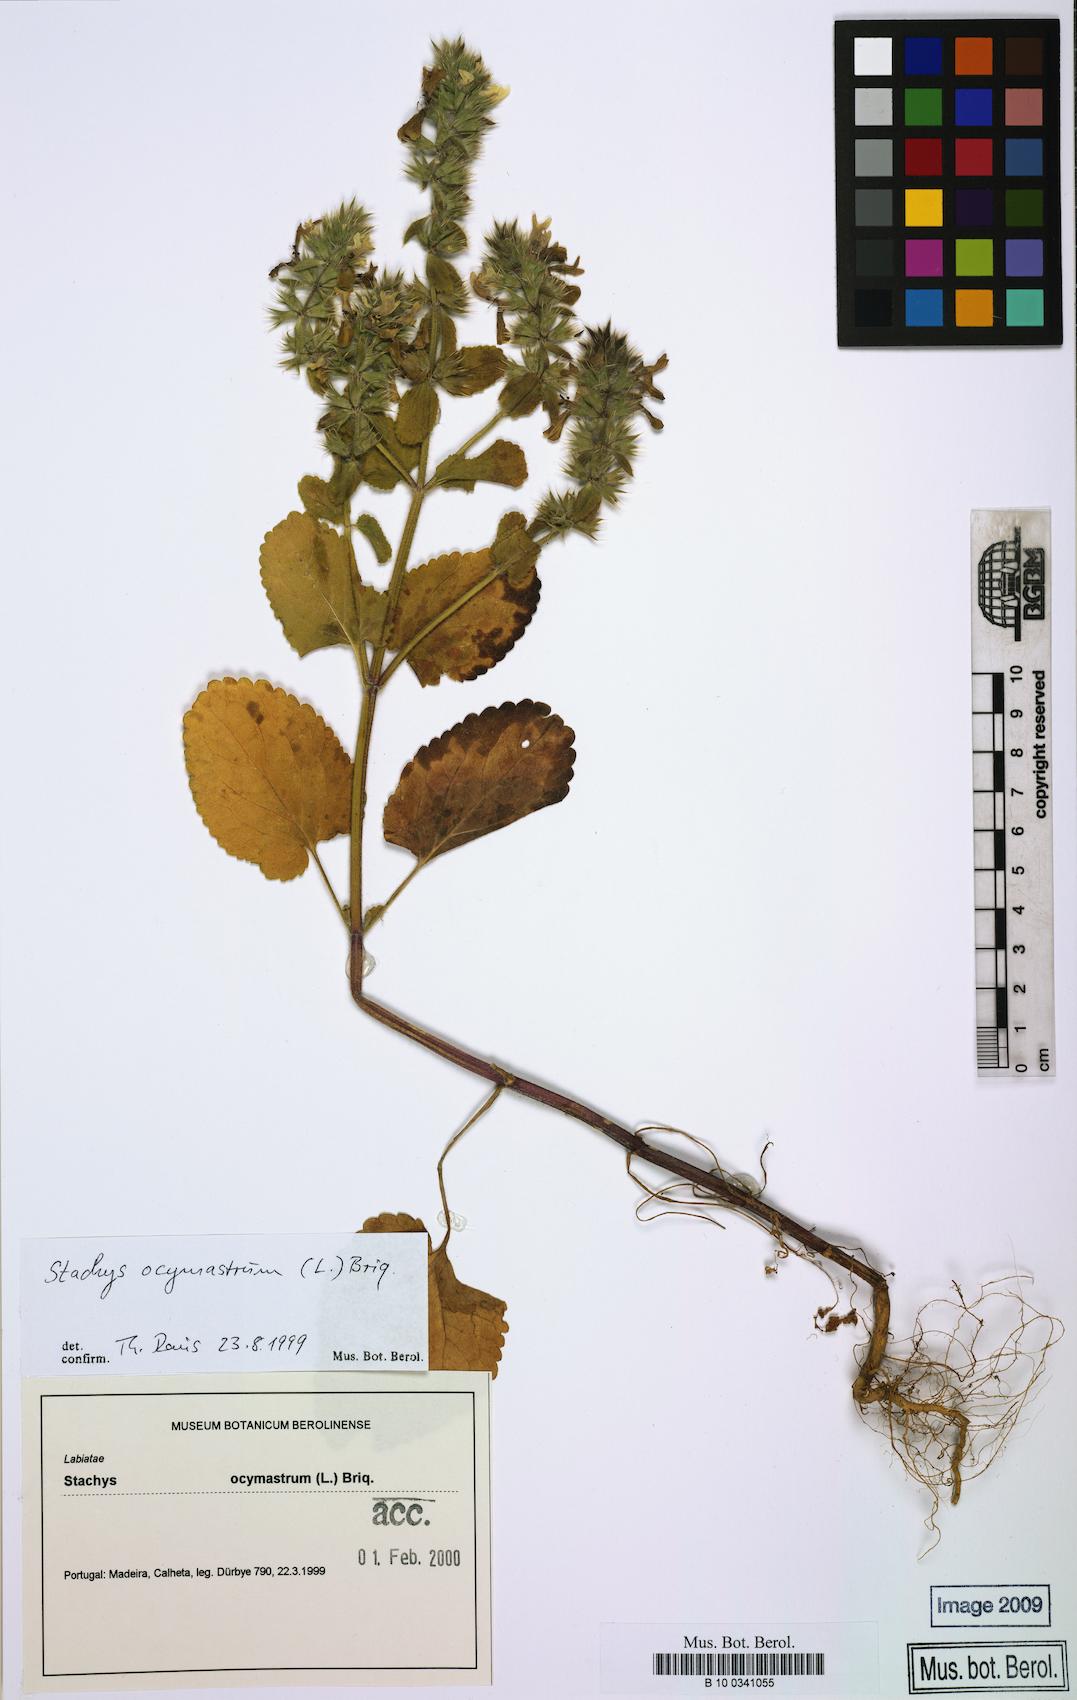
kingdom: Plantae
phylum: Tracheophyta
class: Magnoliopsida
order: Lamiales
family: Lamiaceae
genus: Stachys
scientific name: Stachys ocymastrum
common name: Italian hedgenettle
